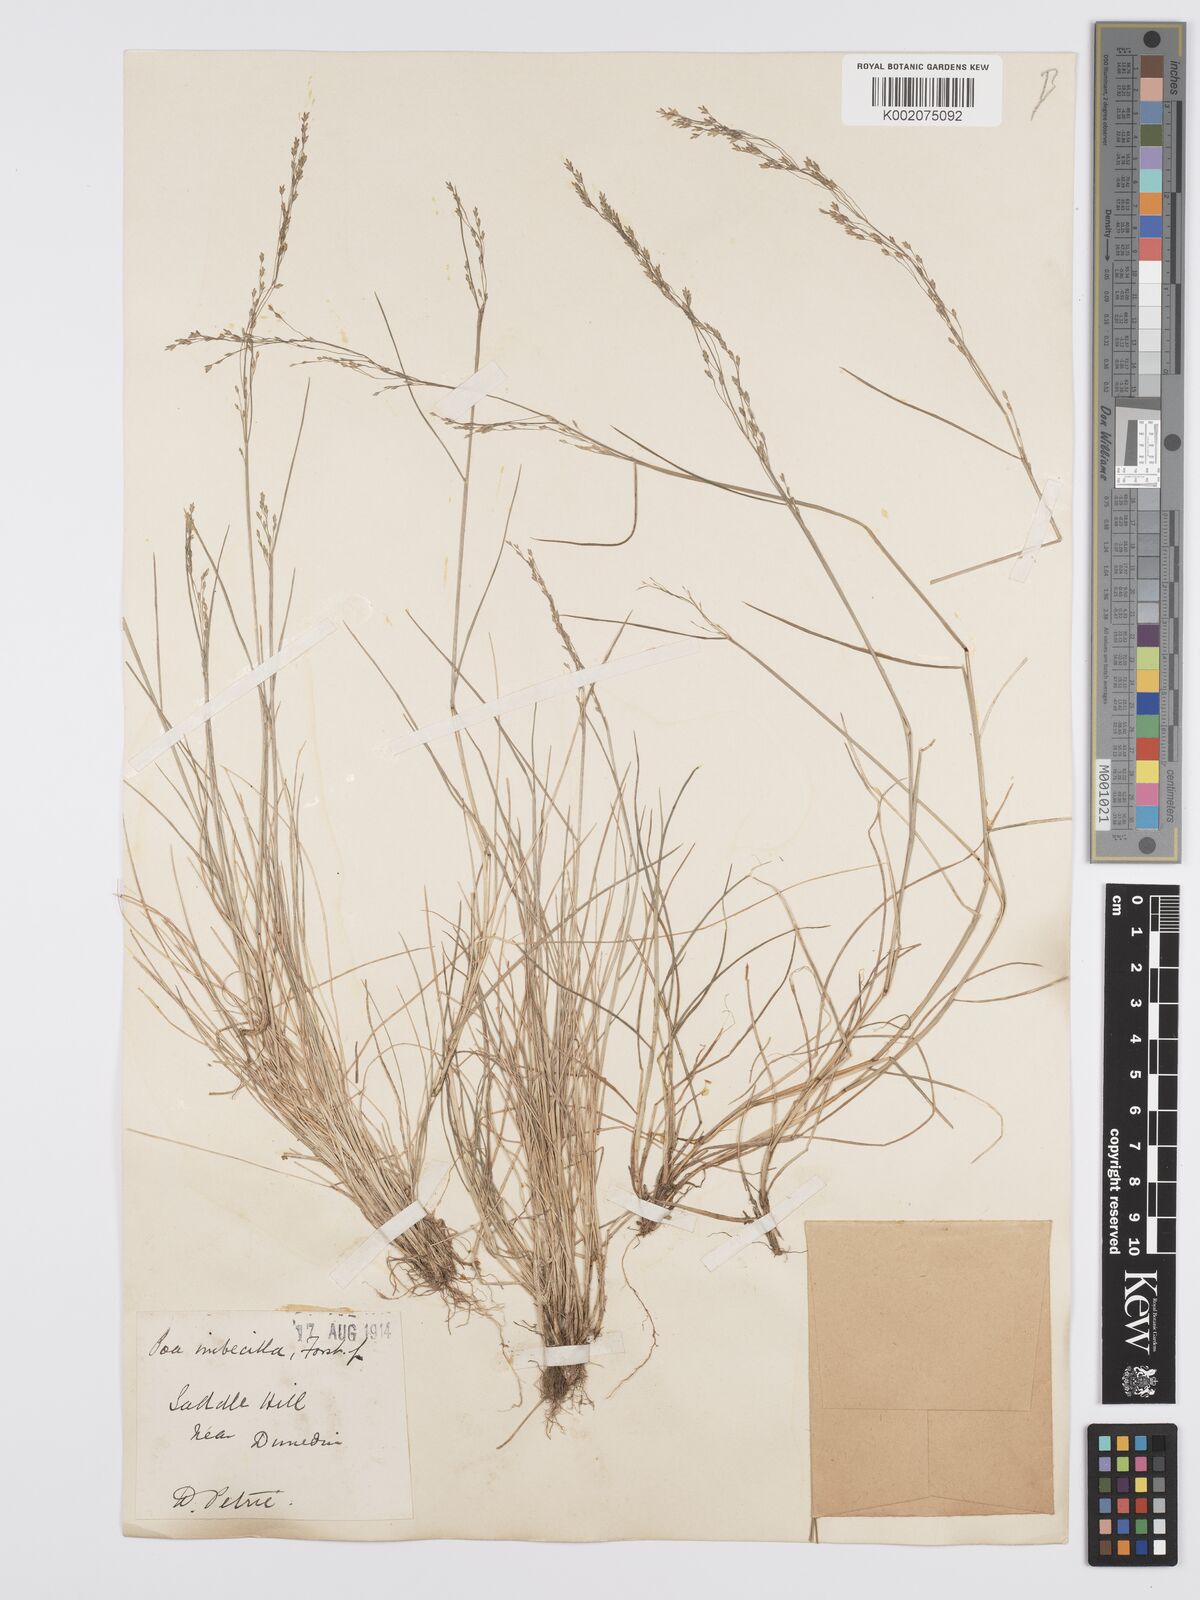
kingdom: Plantae
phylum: Tracheophyta
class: Liliopsida
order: Poales
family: Poaceae
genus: Poa
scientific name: Poa matthewsii
